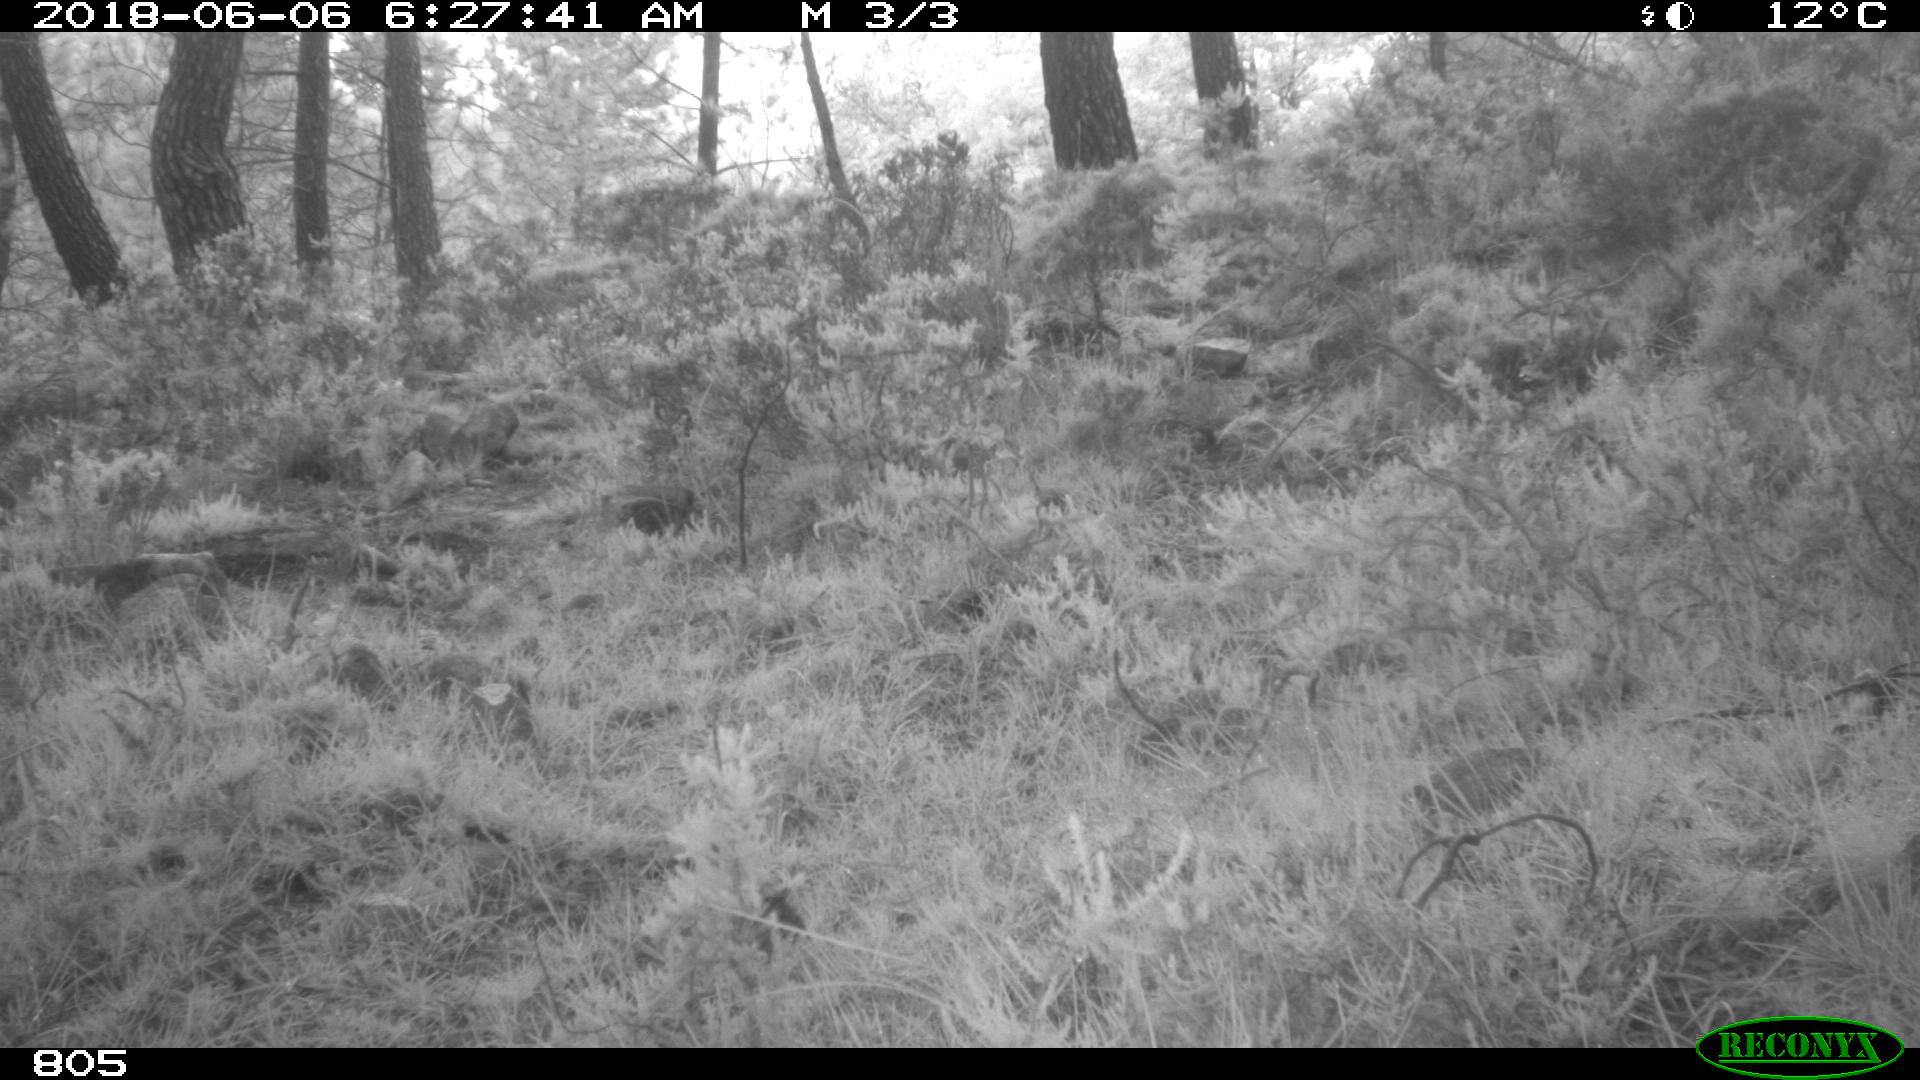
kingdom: Animalia
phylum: Chordata
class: Mammalia
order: Artiodactyla
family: Bovidae
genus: Bos
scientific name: Bos taurus
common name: Domesticated cattle
